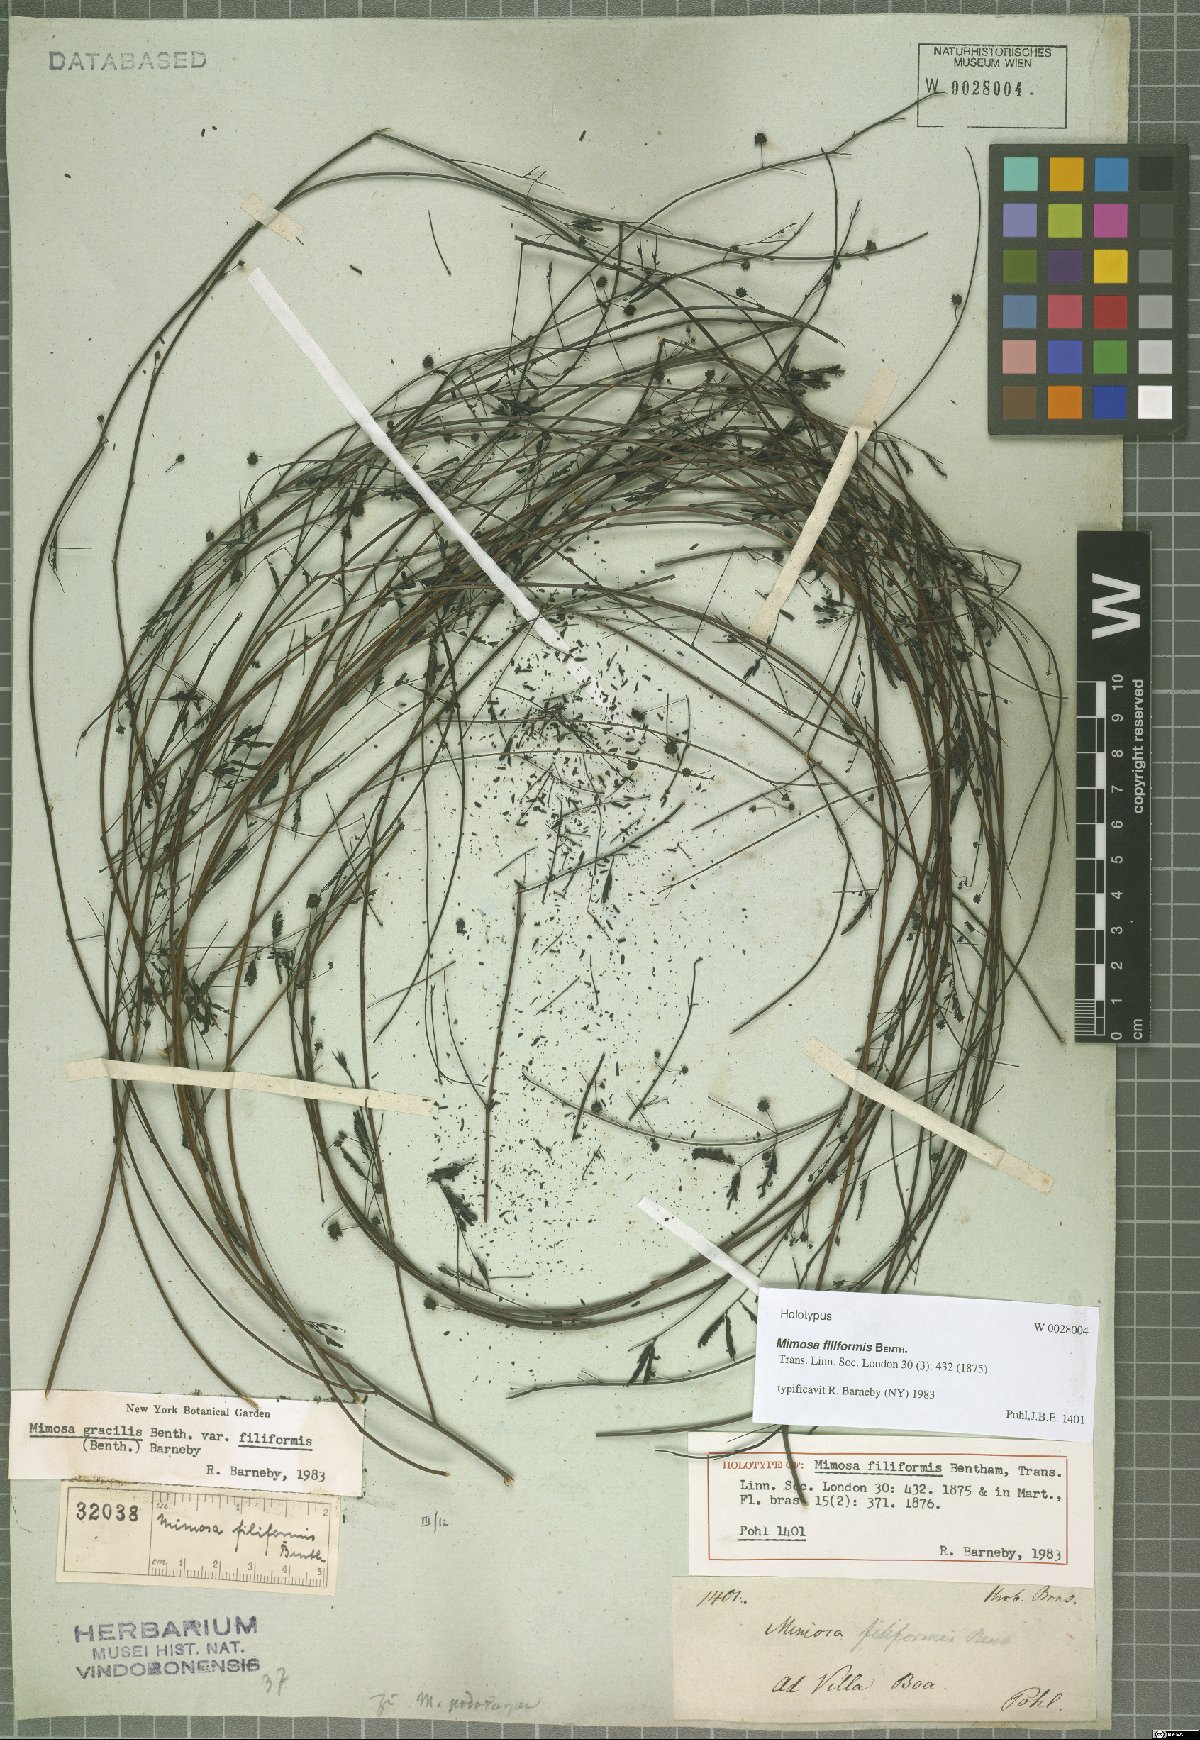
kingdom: Plantae
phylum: Tracheophyta
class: Magnoliopsida
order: Fabales
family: Fabaceae
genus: Mimosa
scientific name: Mimosa gracilis
